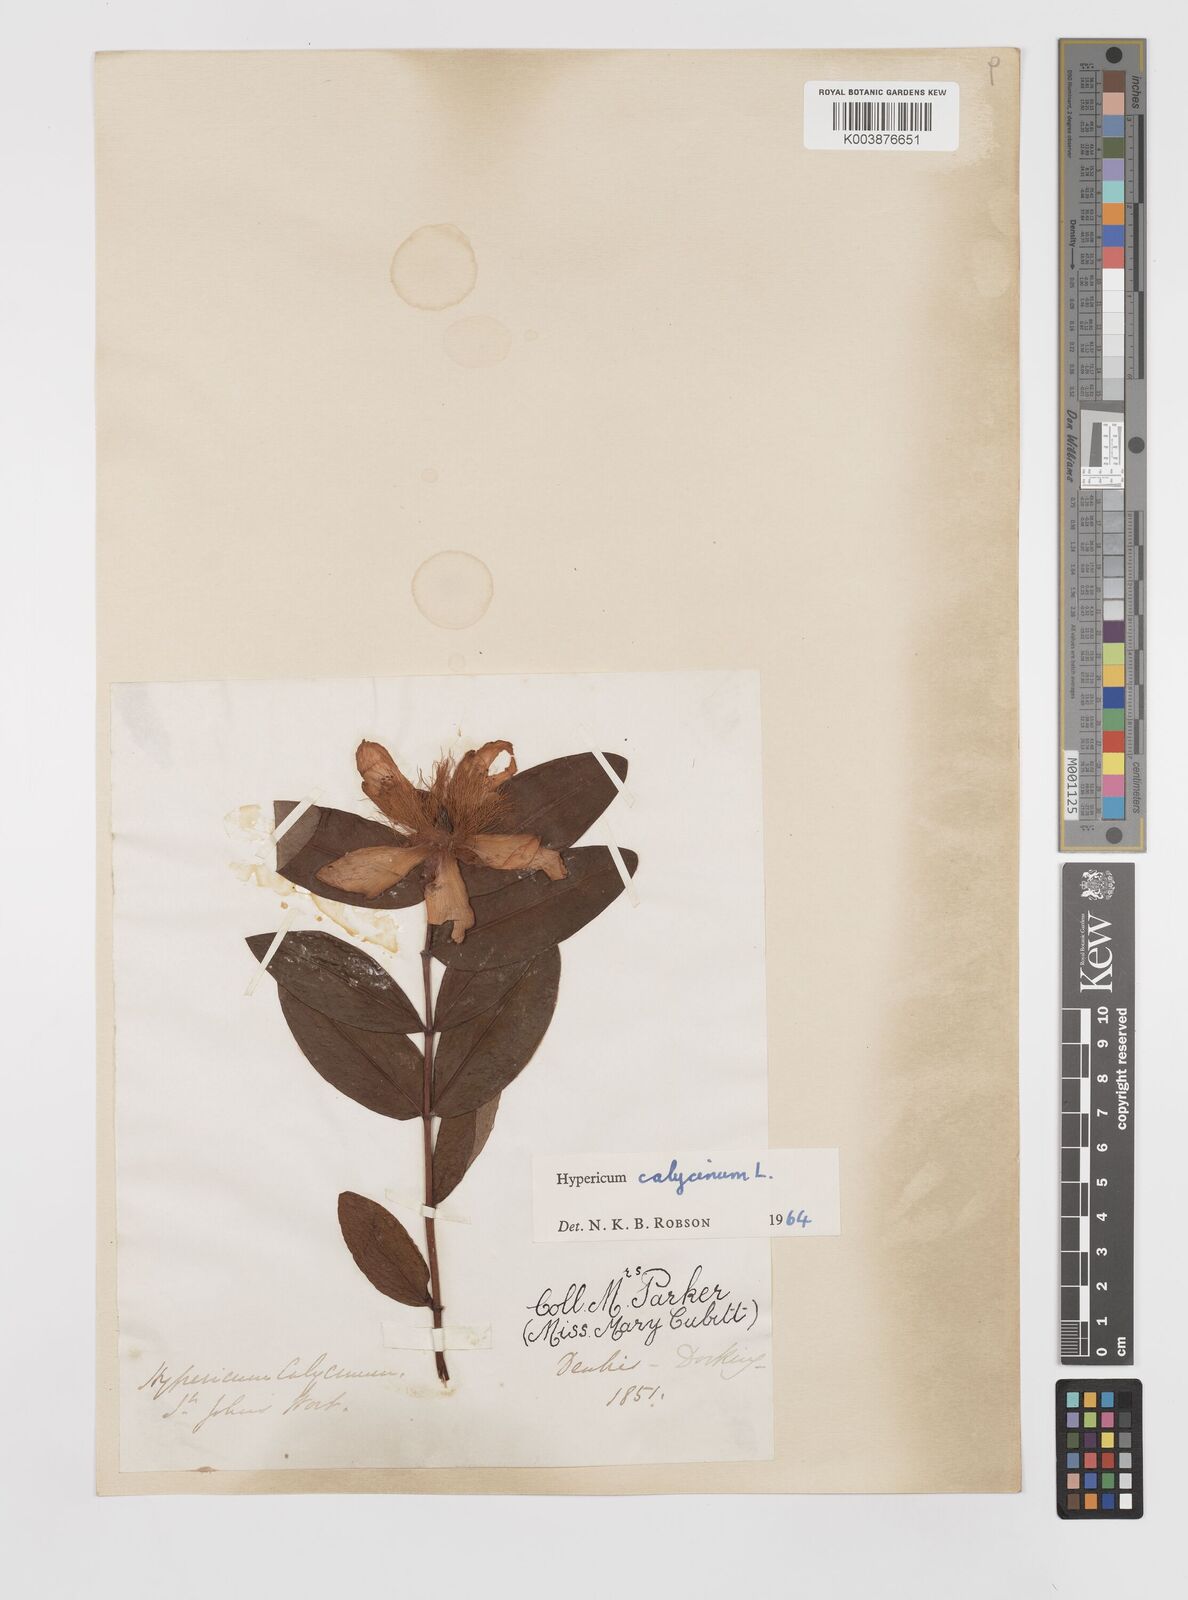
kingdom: Plantae
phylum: Tracheophyta
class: Magnoliopsida
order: Malpighiales
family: Hypericaceae
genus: Hypericum
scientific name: Hypericum calycinum
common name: Rose-of-sharon
